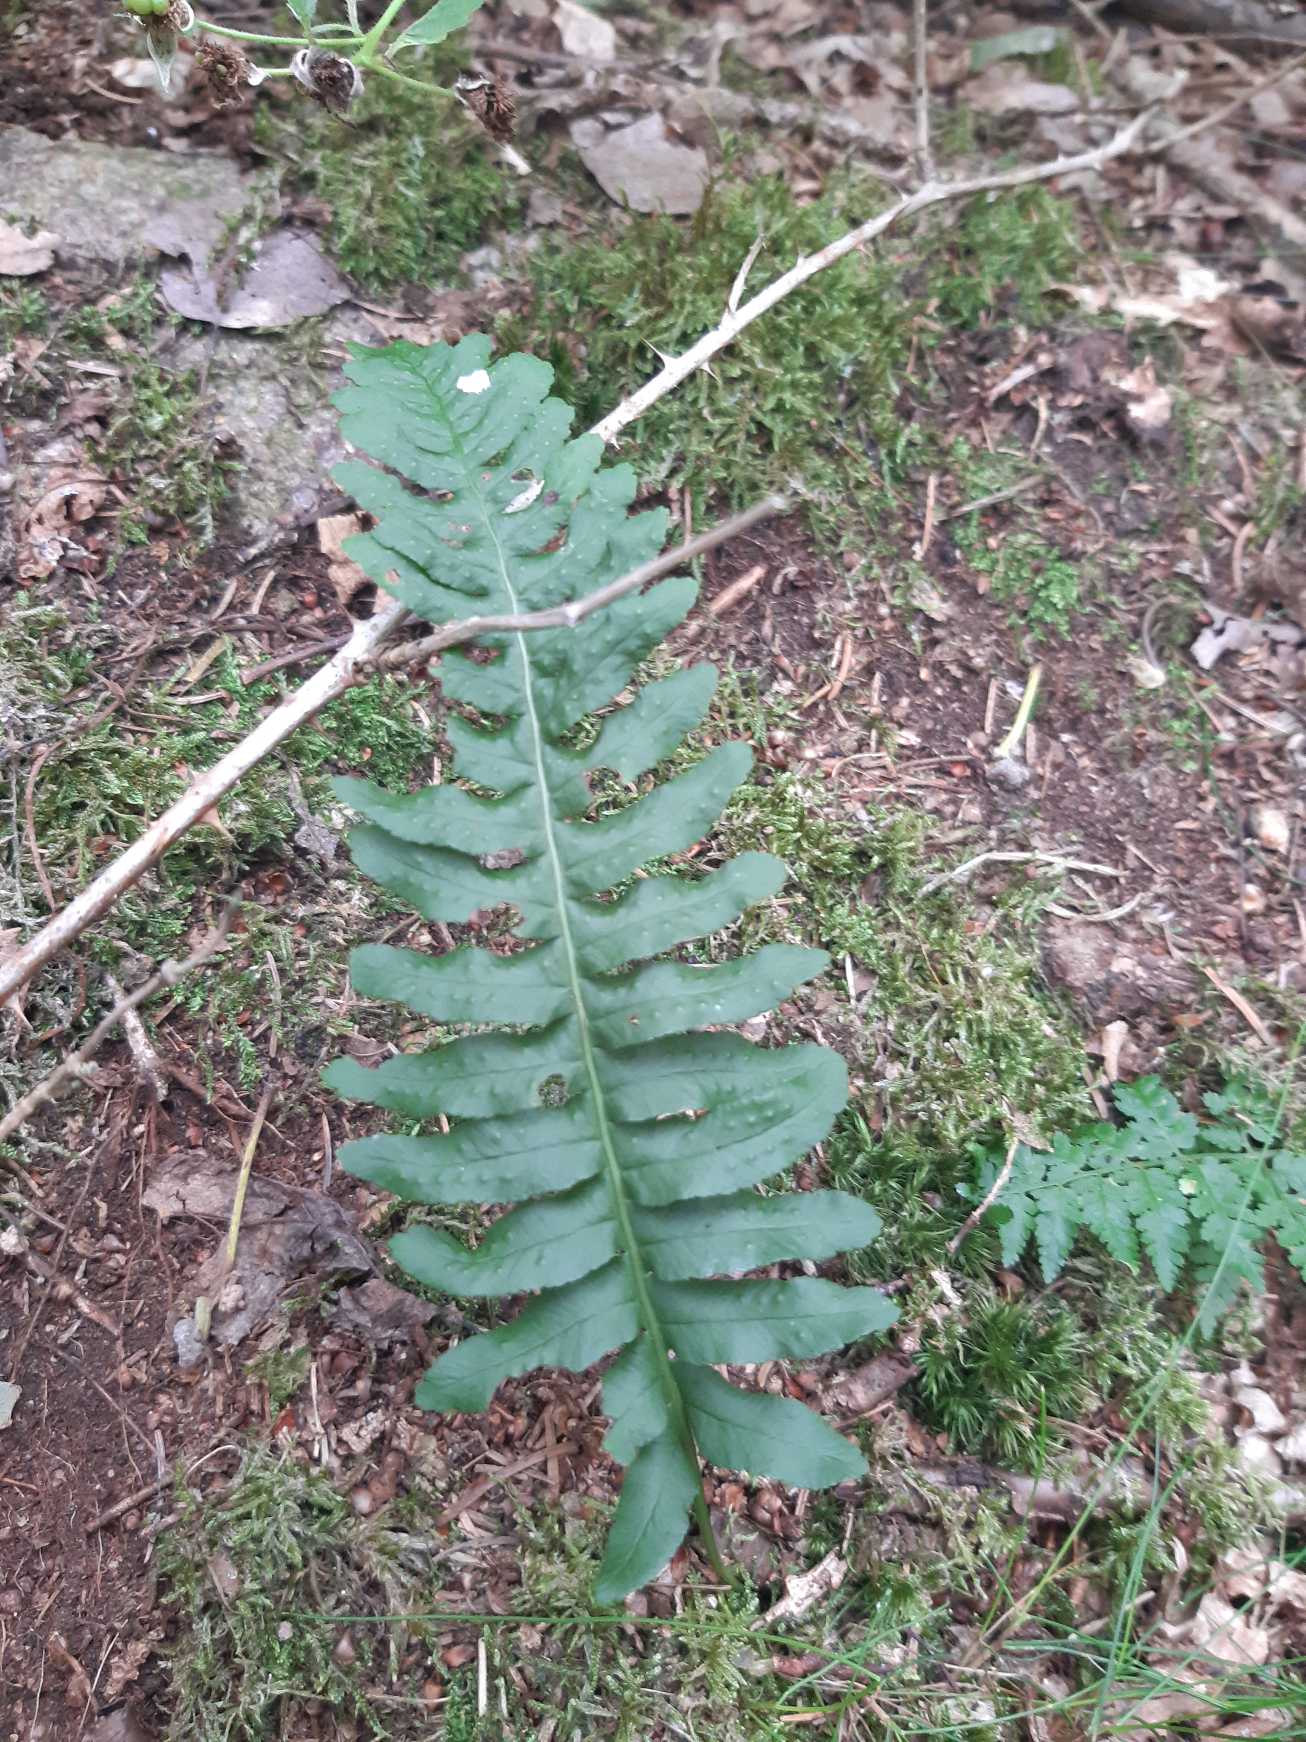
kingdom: Plantae
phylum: Tracheophyta
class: Polypodiopsida
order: Polypodiales
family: Polypodiaceae
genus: Polypodium
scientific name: Polypodium vulgare
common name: Almindelig engelsød
